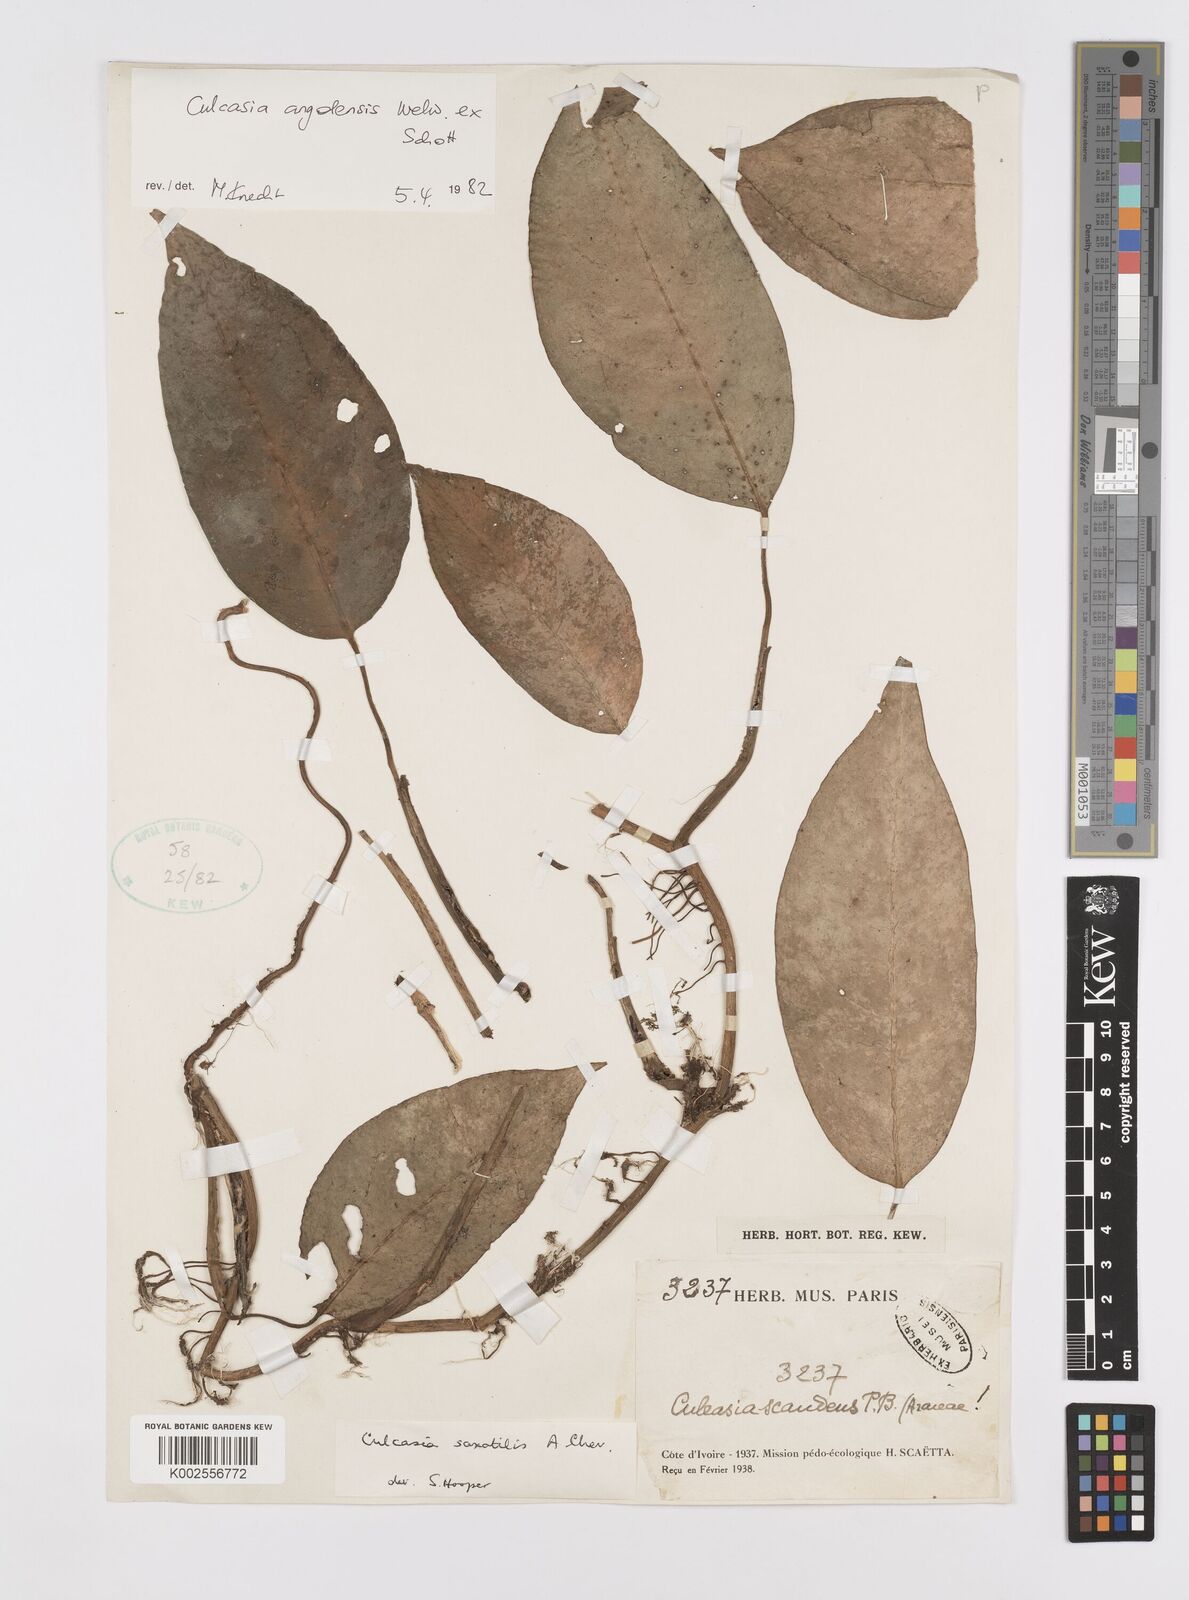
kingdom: Plantae
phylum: Tracheophyta
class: Liliopsida
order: Alismatales
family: Araceae
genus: Culcasia
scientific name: Culcasia angolensis
